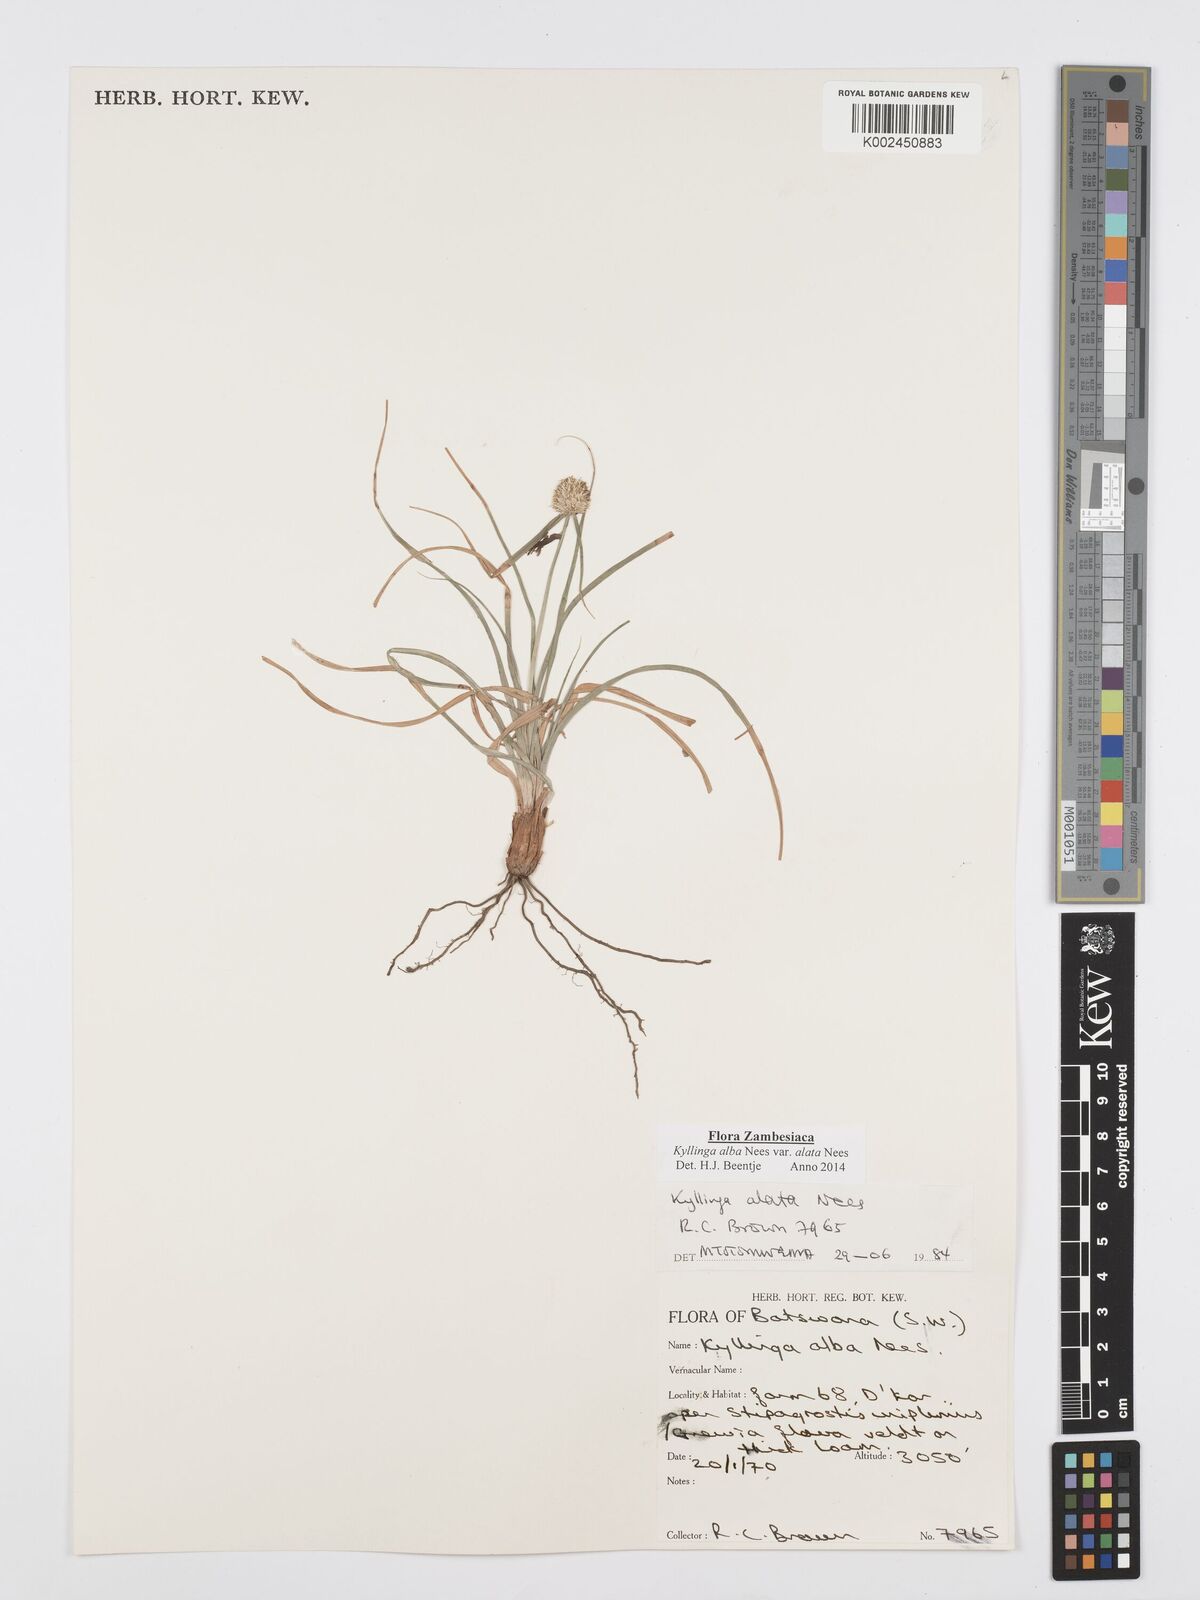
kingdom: Plantae
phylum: Tracheophyta
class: Liliopsida
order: Poales
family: Cyperaceae
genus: Cyperus
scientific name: Cyperus alatus
